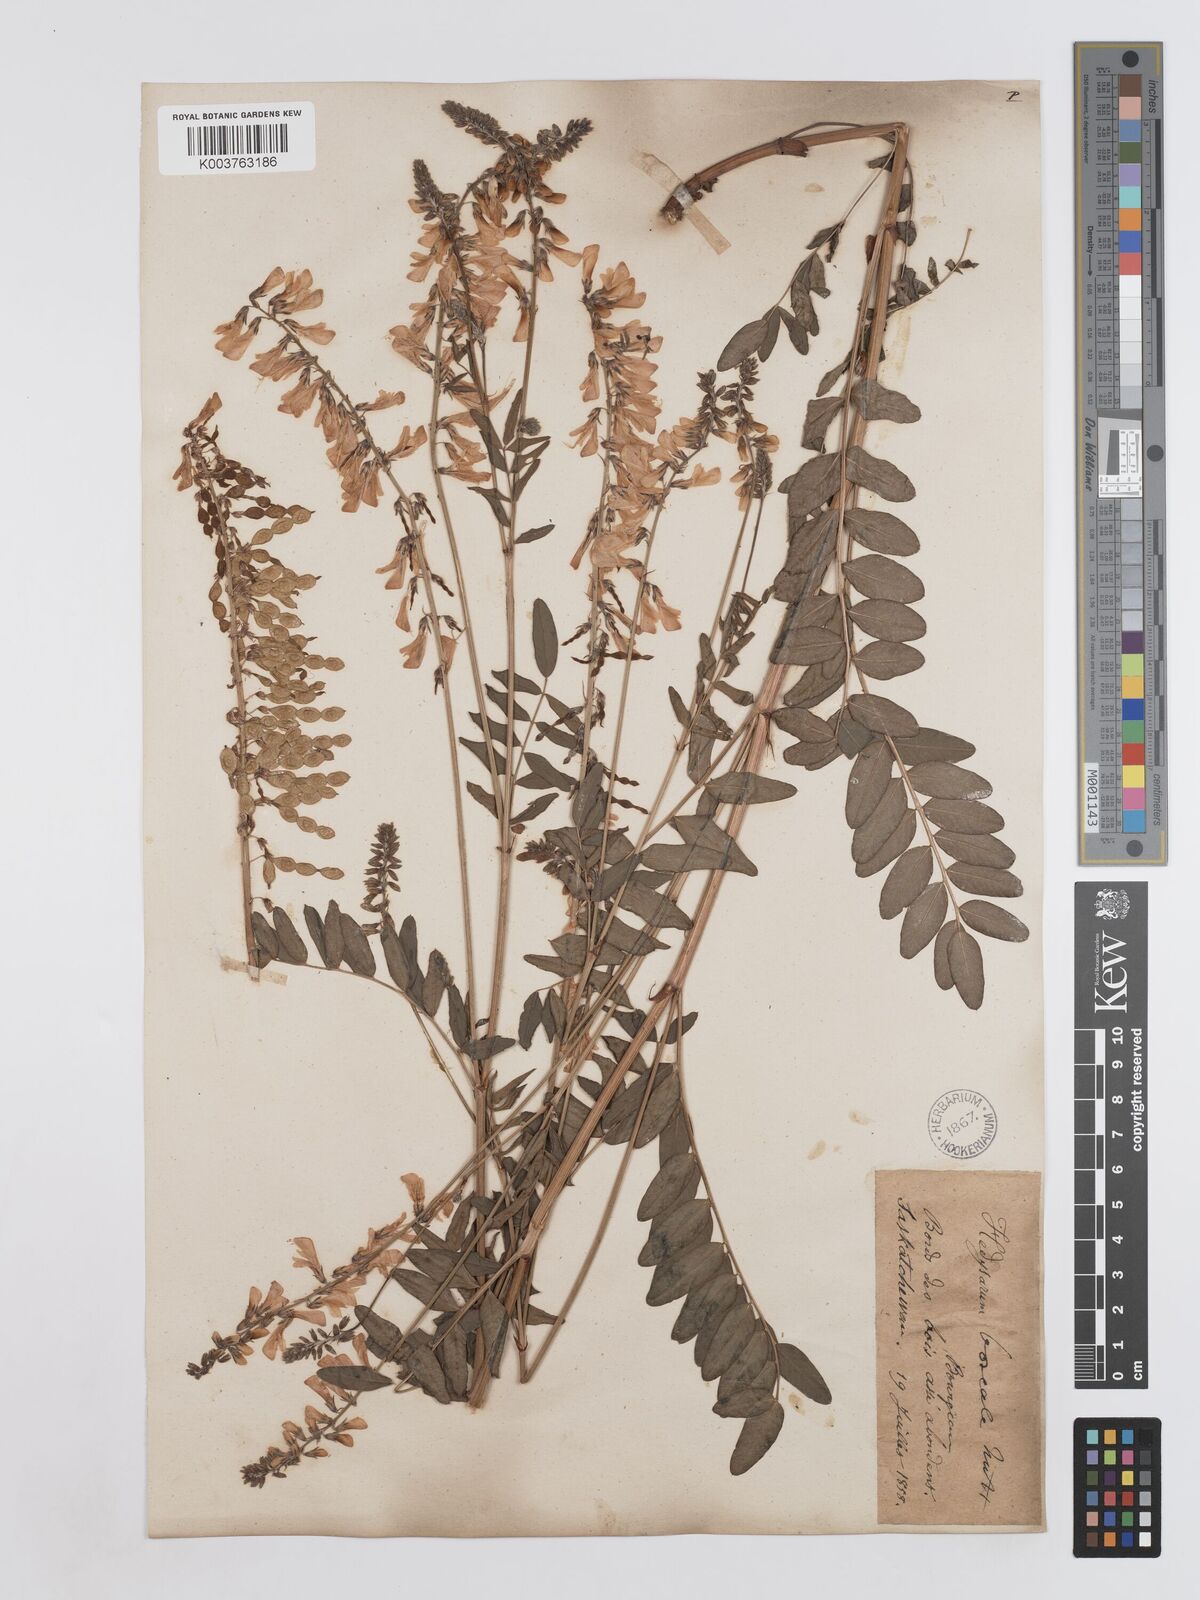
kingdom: Plantae
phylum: Tracheophyta
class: Magnoliopsida
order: Fabales
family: Fabaceae
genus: Hedysarum
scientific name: Hedysarum boreale
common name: Northern sweet-vetch
